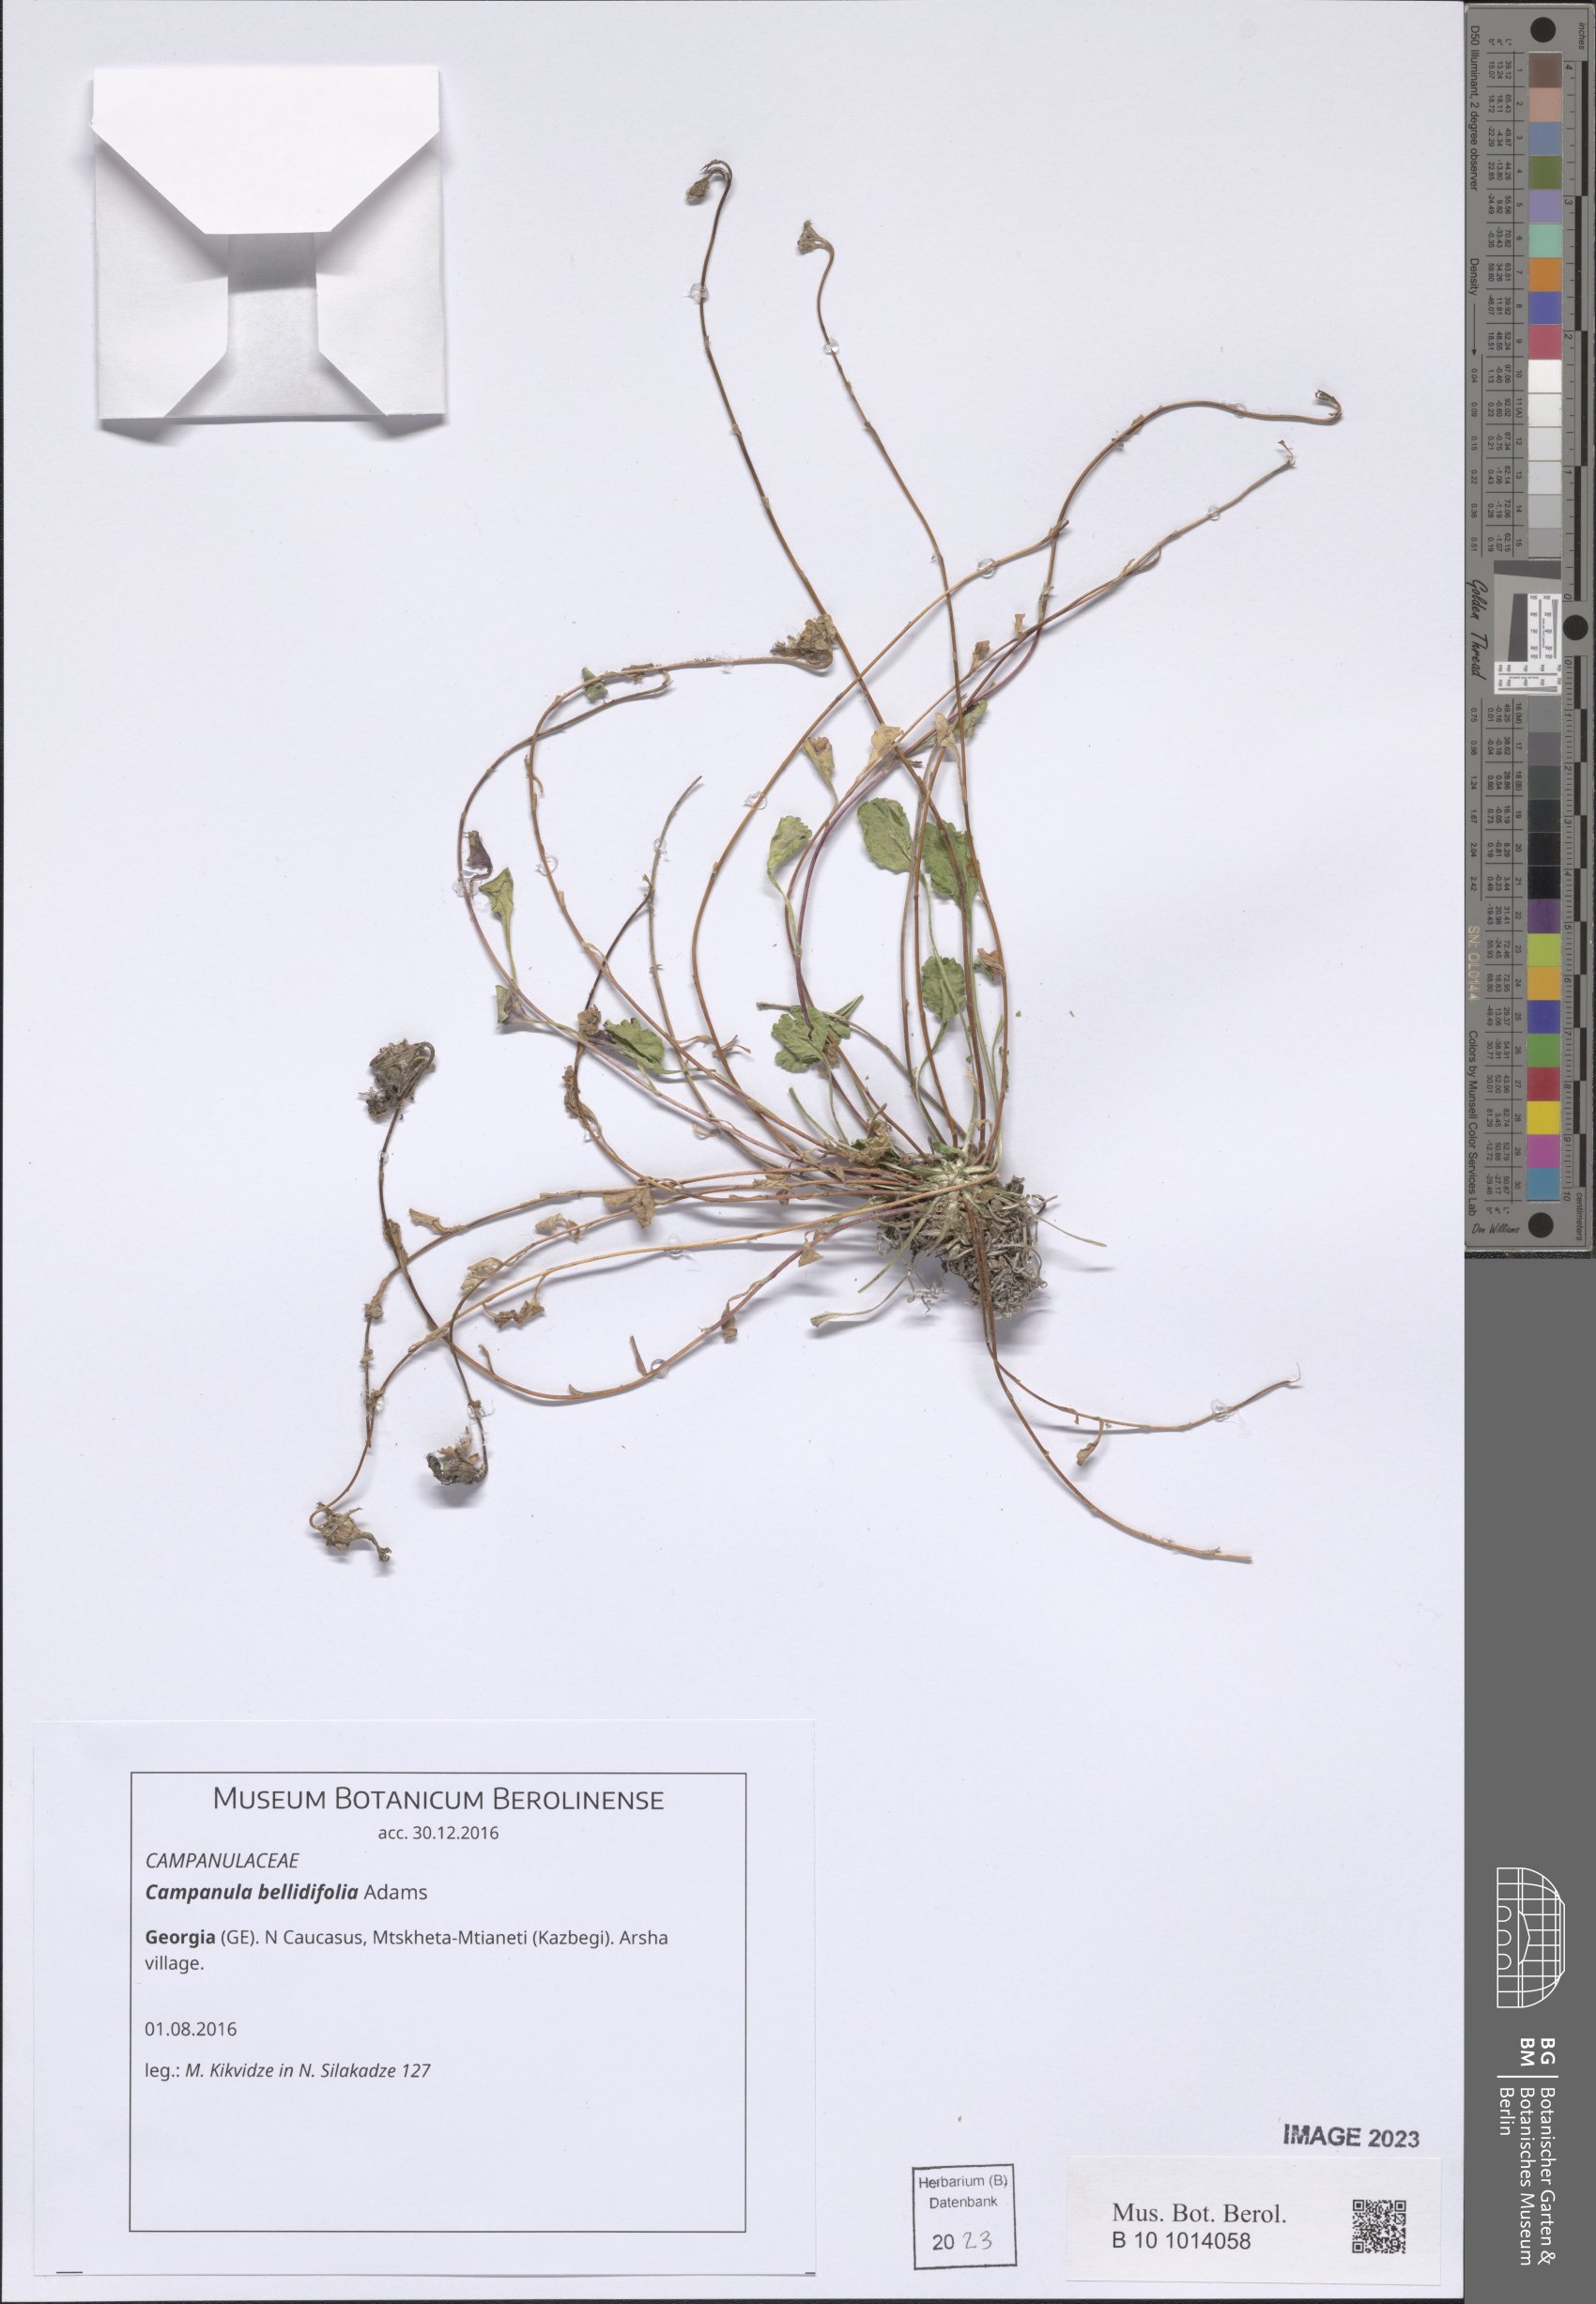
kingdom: Plantae
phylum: Tracheophyta
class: Magnoliopsida
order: Asterales
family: Campanulaceae
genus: Campanula
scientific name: Campanula bellidifolia
